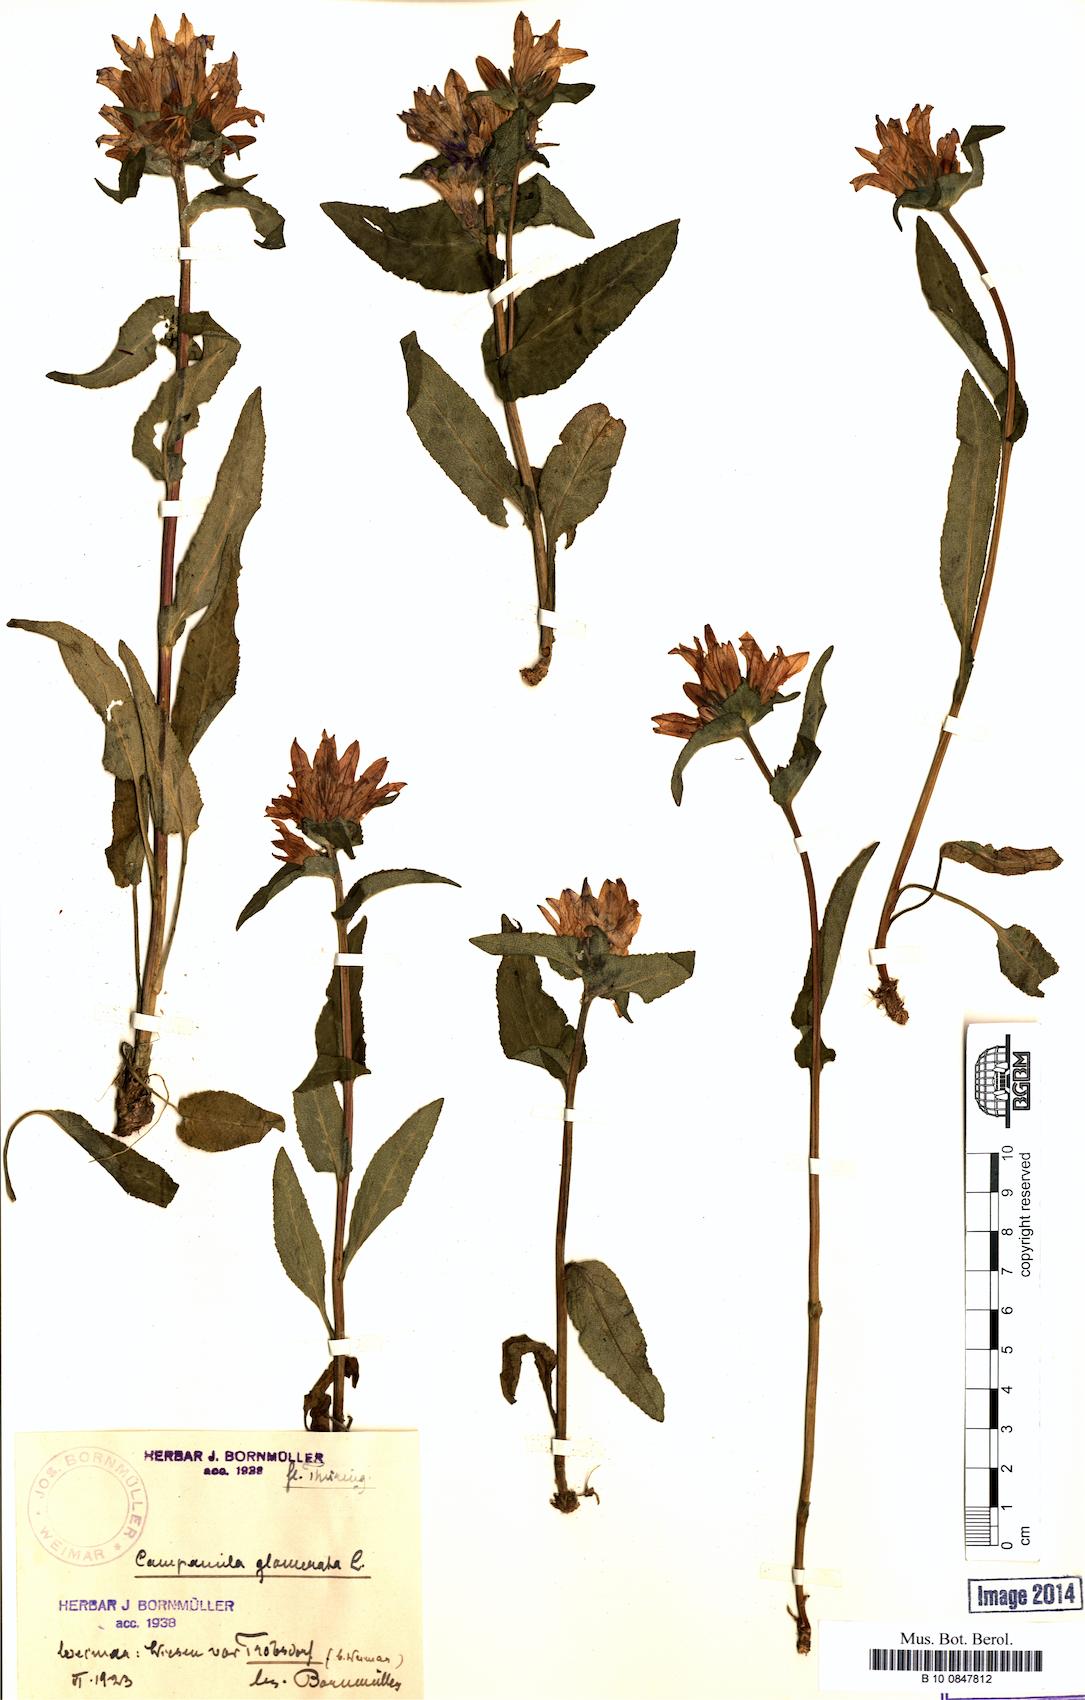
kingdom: Plantae
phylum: Tracheophyta
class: Magnoliopsida
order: Asterales
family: Campanulaceae
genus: Campanula
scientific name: Campanula glomerata
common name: Clustered bellflower
